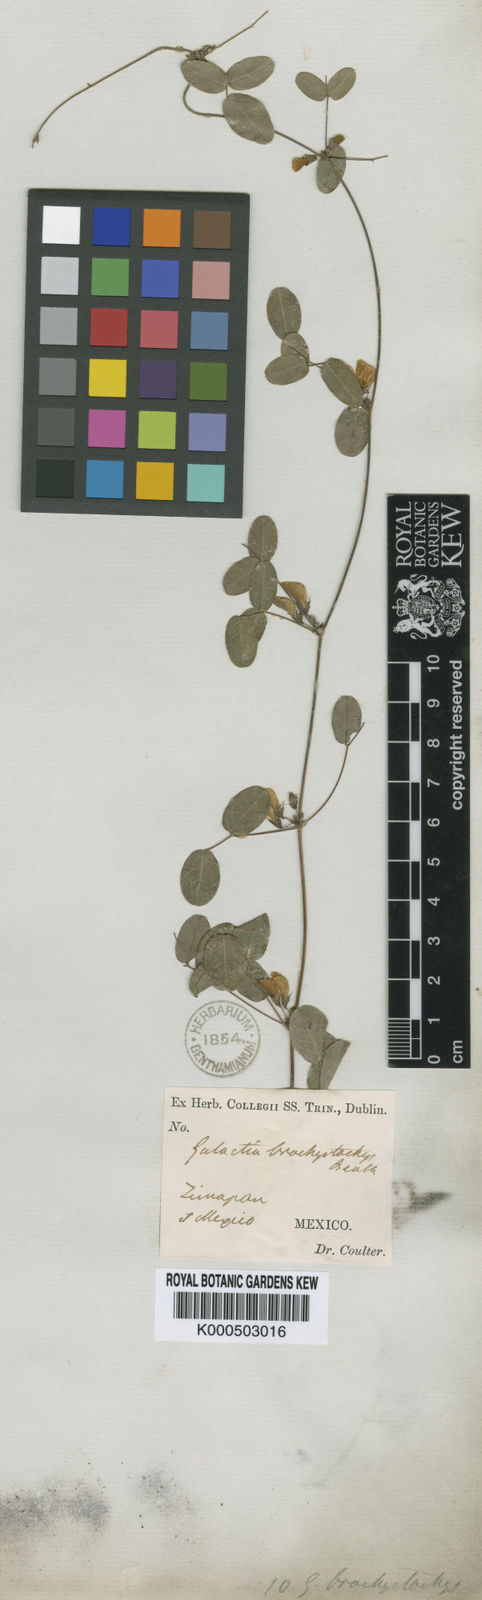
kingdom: Plantae
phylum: Tracheophyta
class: Magnoliopsida
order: Fabales
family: Fabaceae
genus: Nanogalactia
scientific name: Nanogalactia brachystachys
